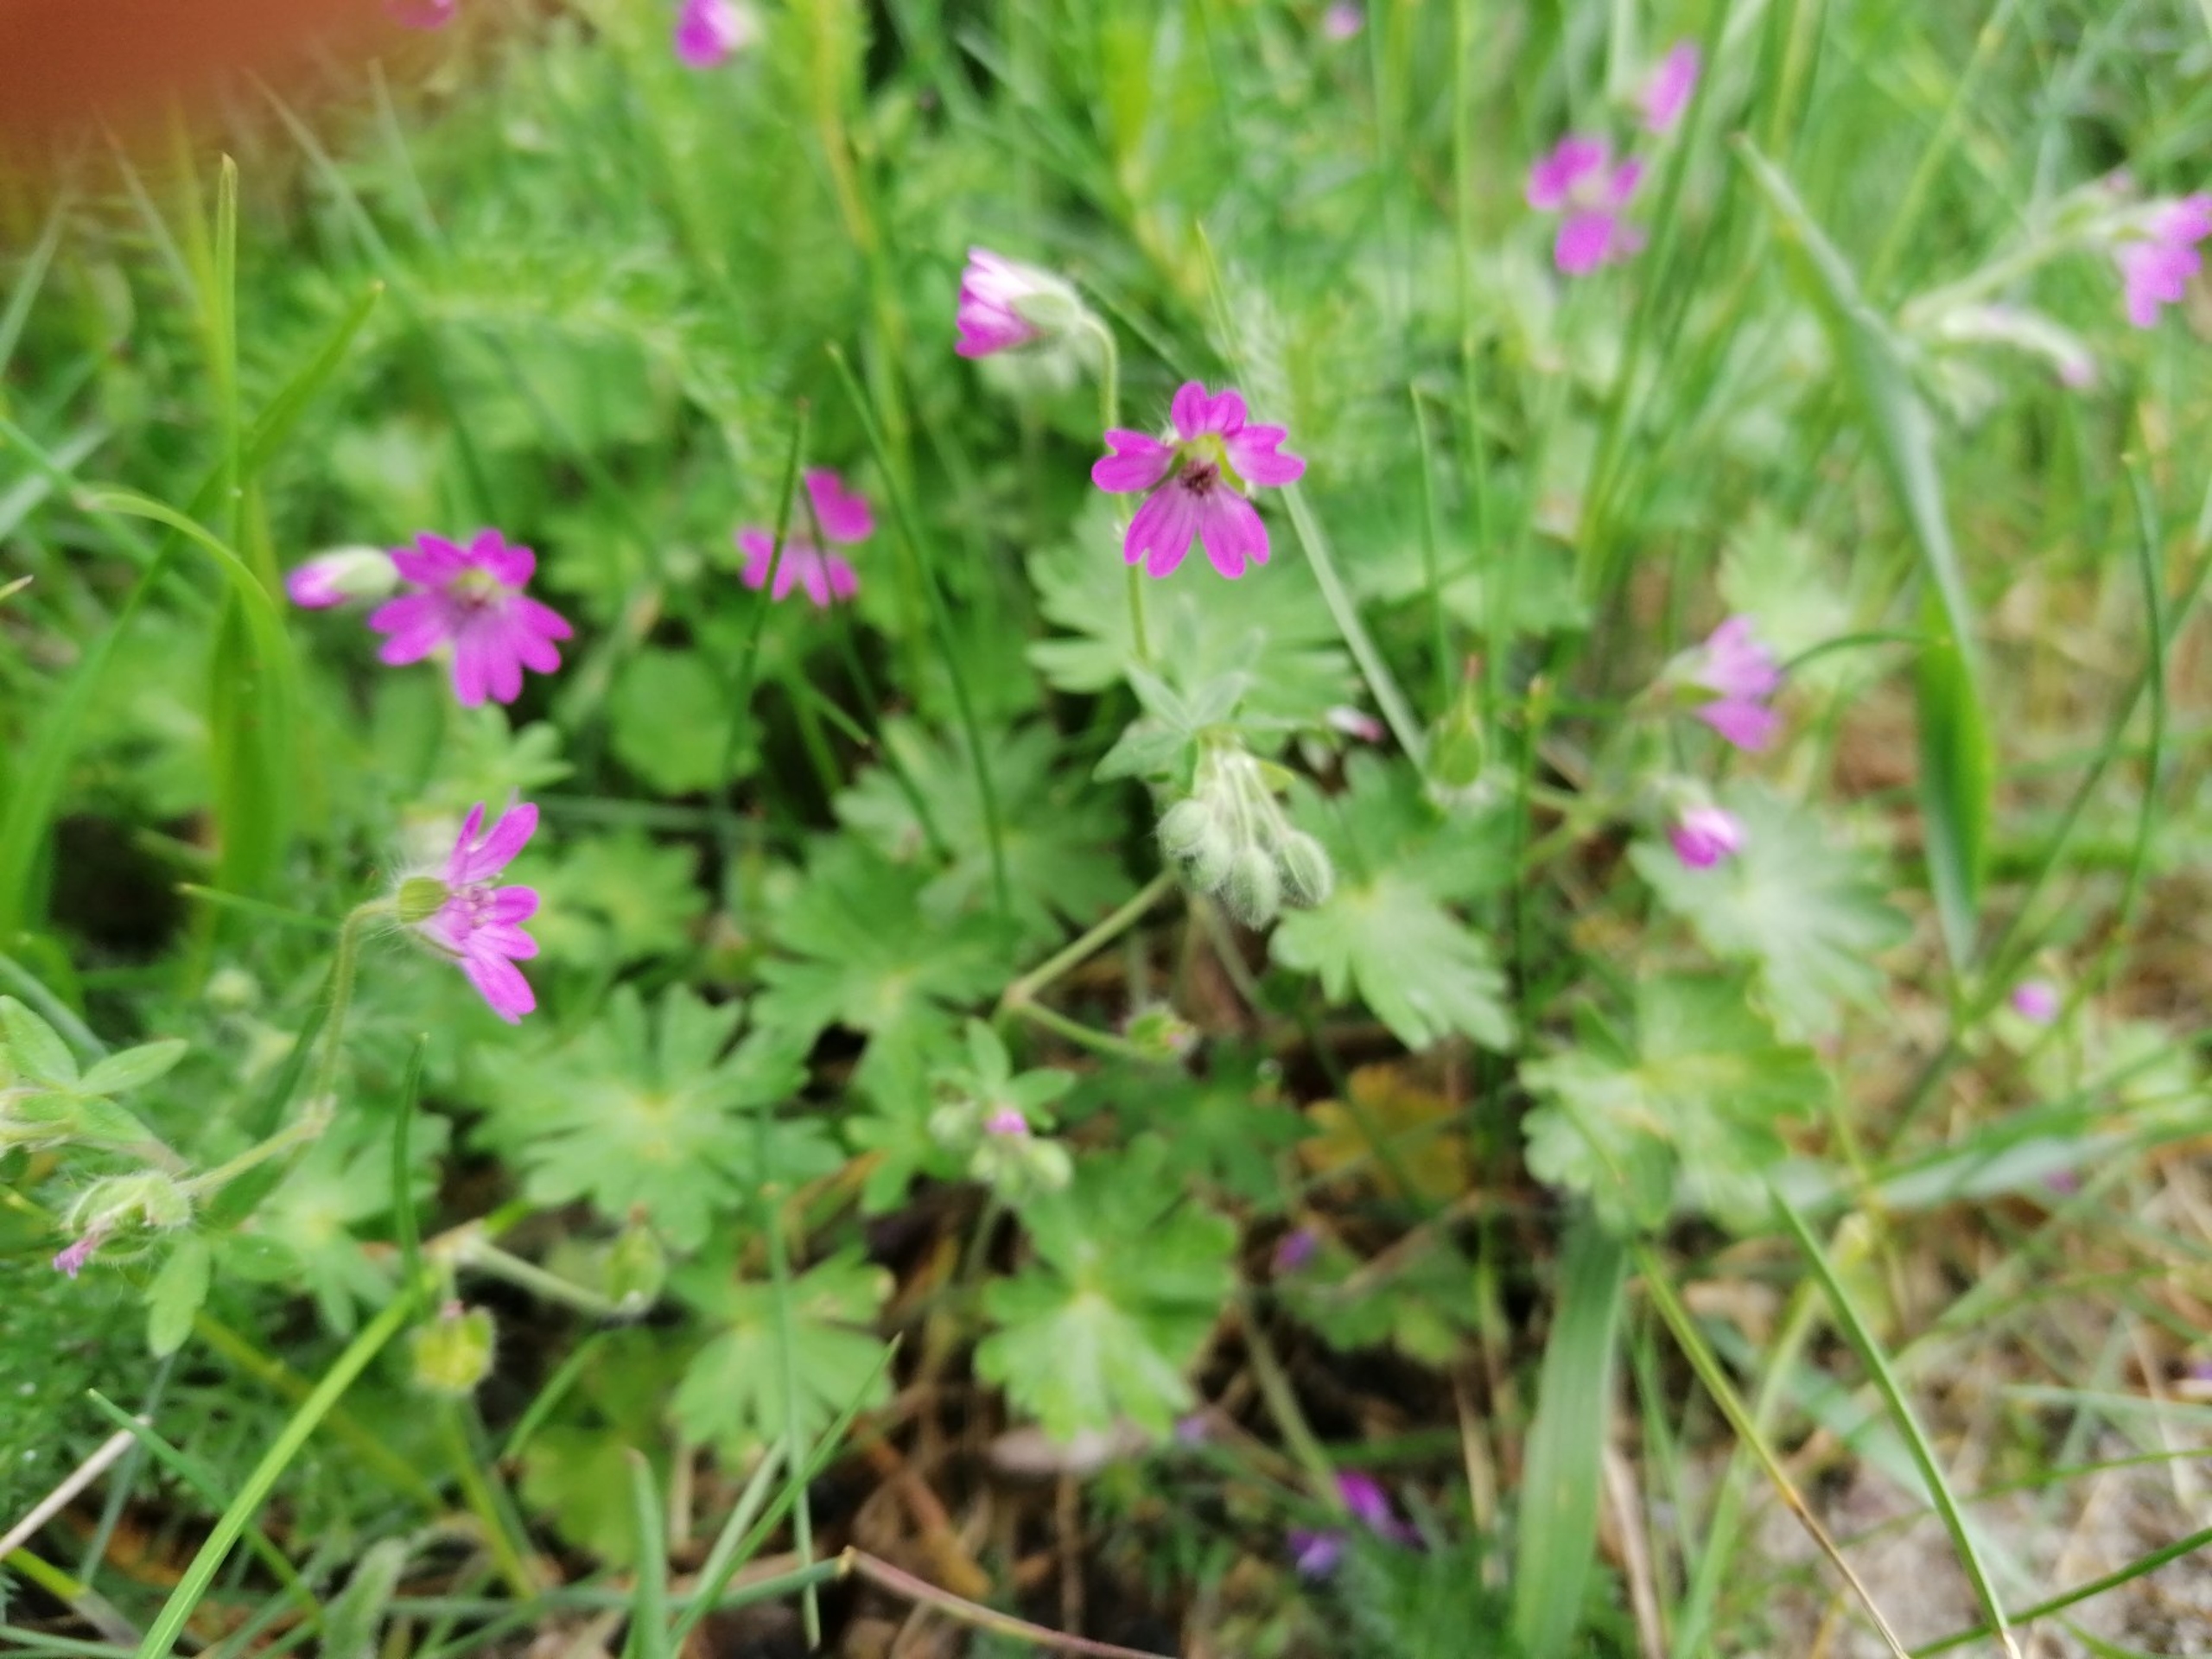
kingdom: Plantae
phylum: Tracheophyta
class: Magnoliopsida
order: Geraniales
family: Geraniaceae
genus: Geranium
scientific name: Geranium molle
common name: Blød storkenæb
